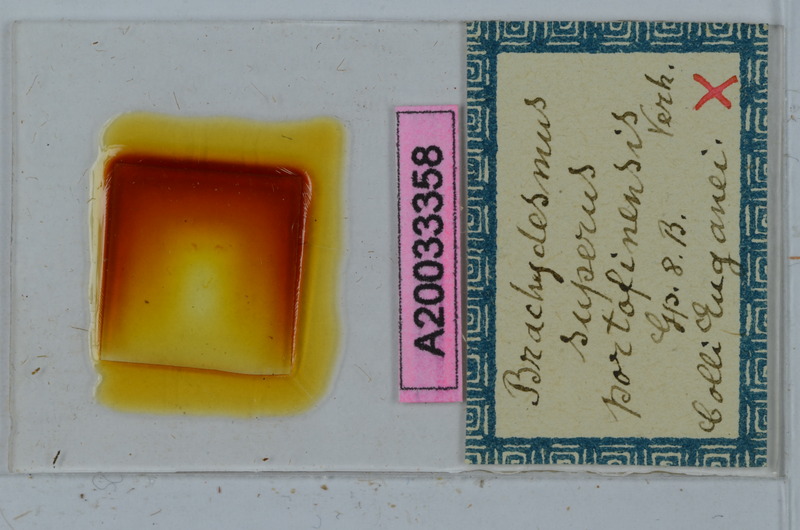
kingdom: Animalia
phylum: Arthropoda
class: Diplopoda
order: Polydesmida
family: Polydesmidae
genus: Brachydesmus
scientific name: Brachydesmus superus
